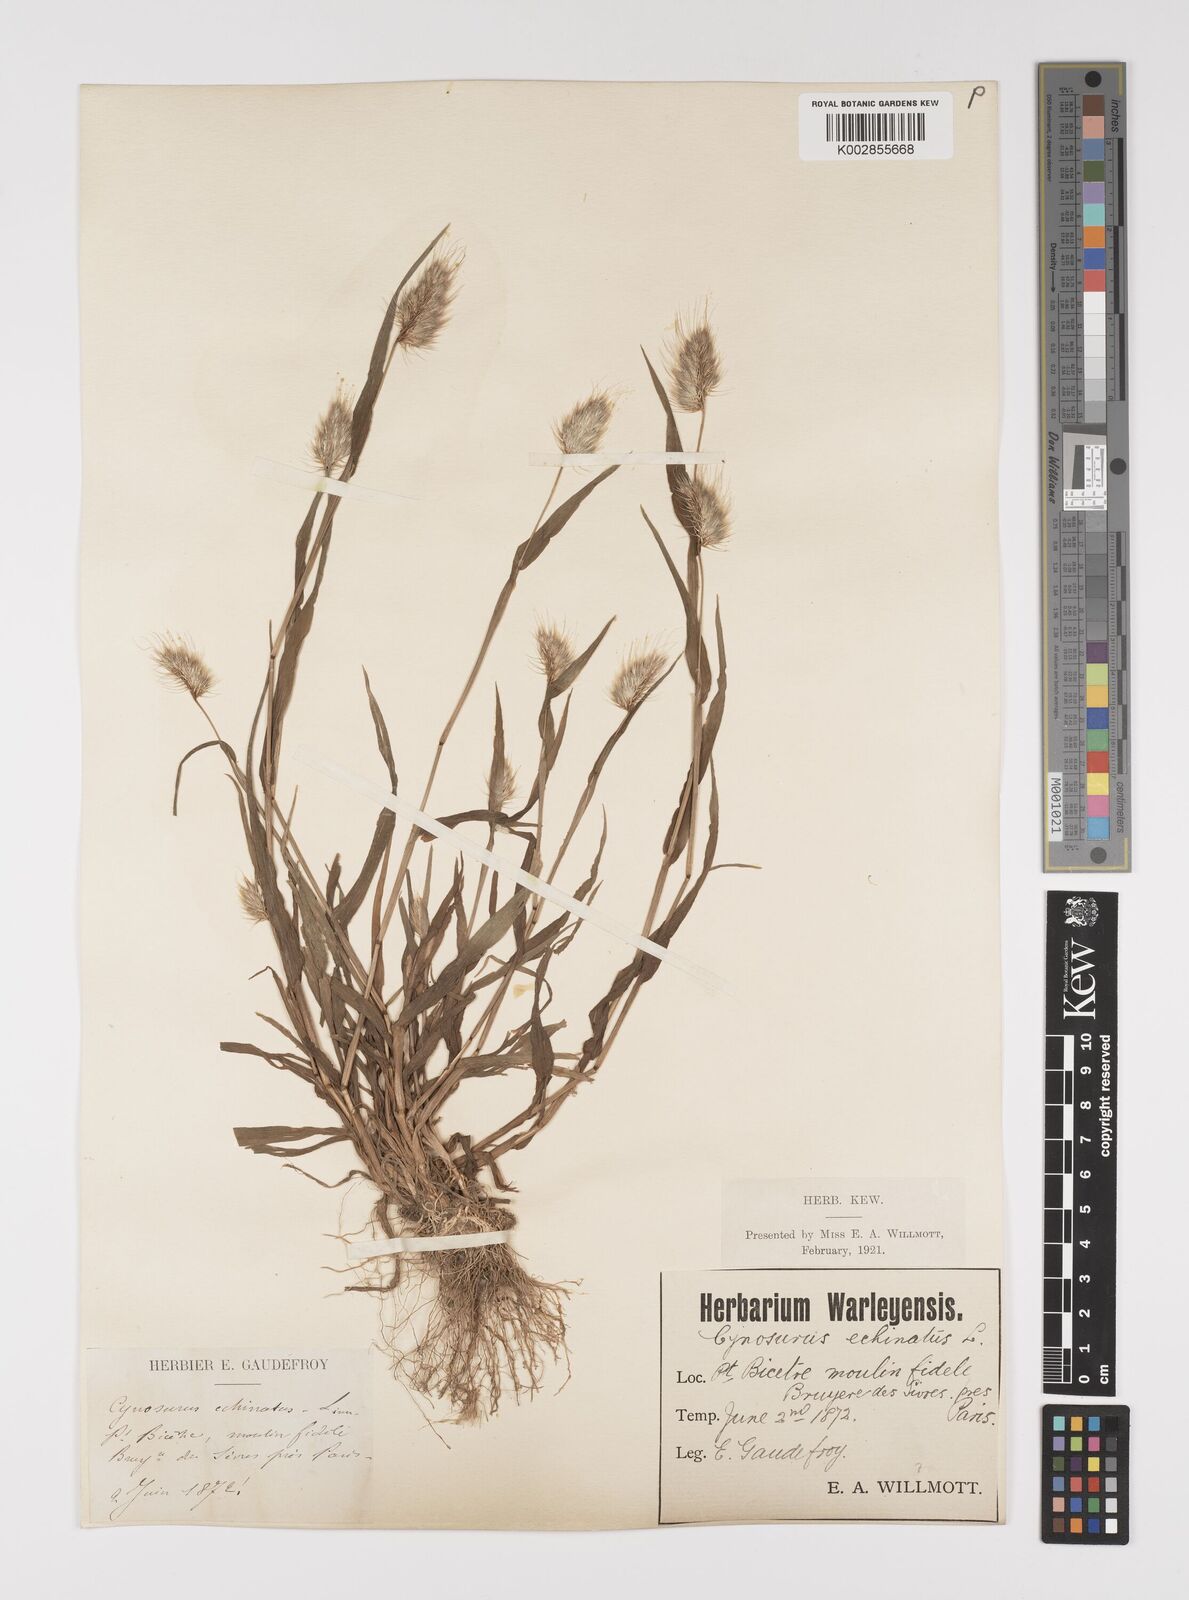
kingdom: Plantae
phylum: Tracheophyta
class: Liliopsida
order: Poales
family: Poaceae
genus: Cynosurus
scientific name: Cynosurus echinatus
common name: Rough dog's-tail
